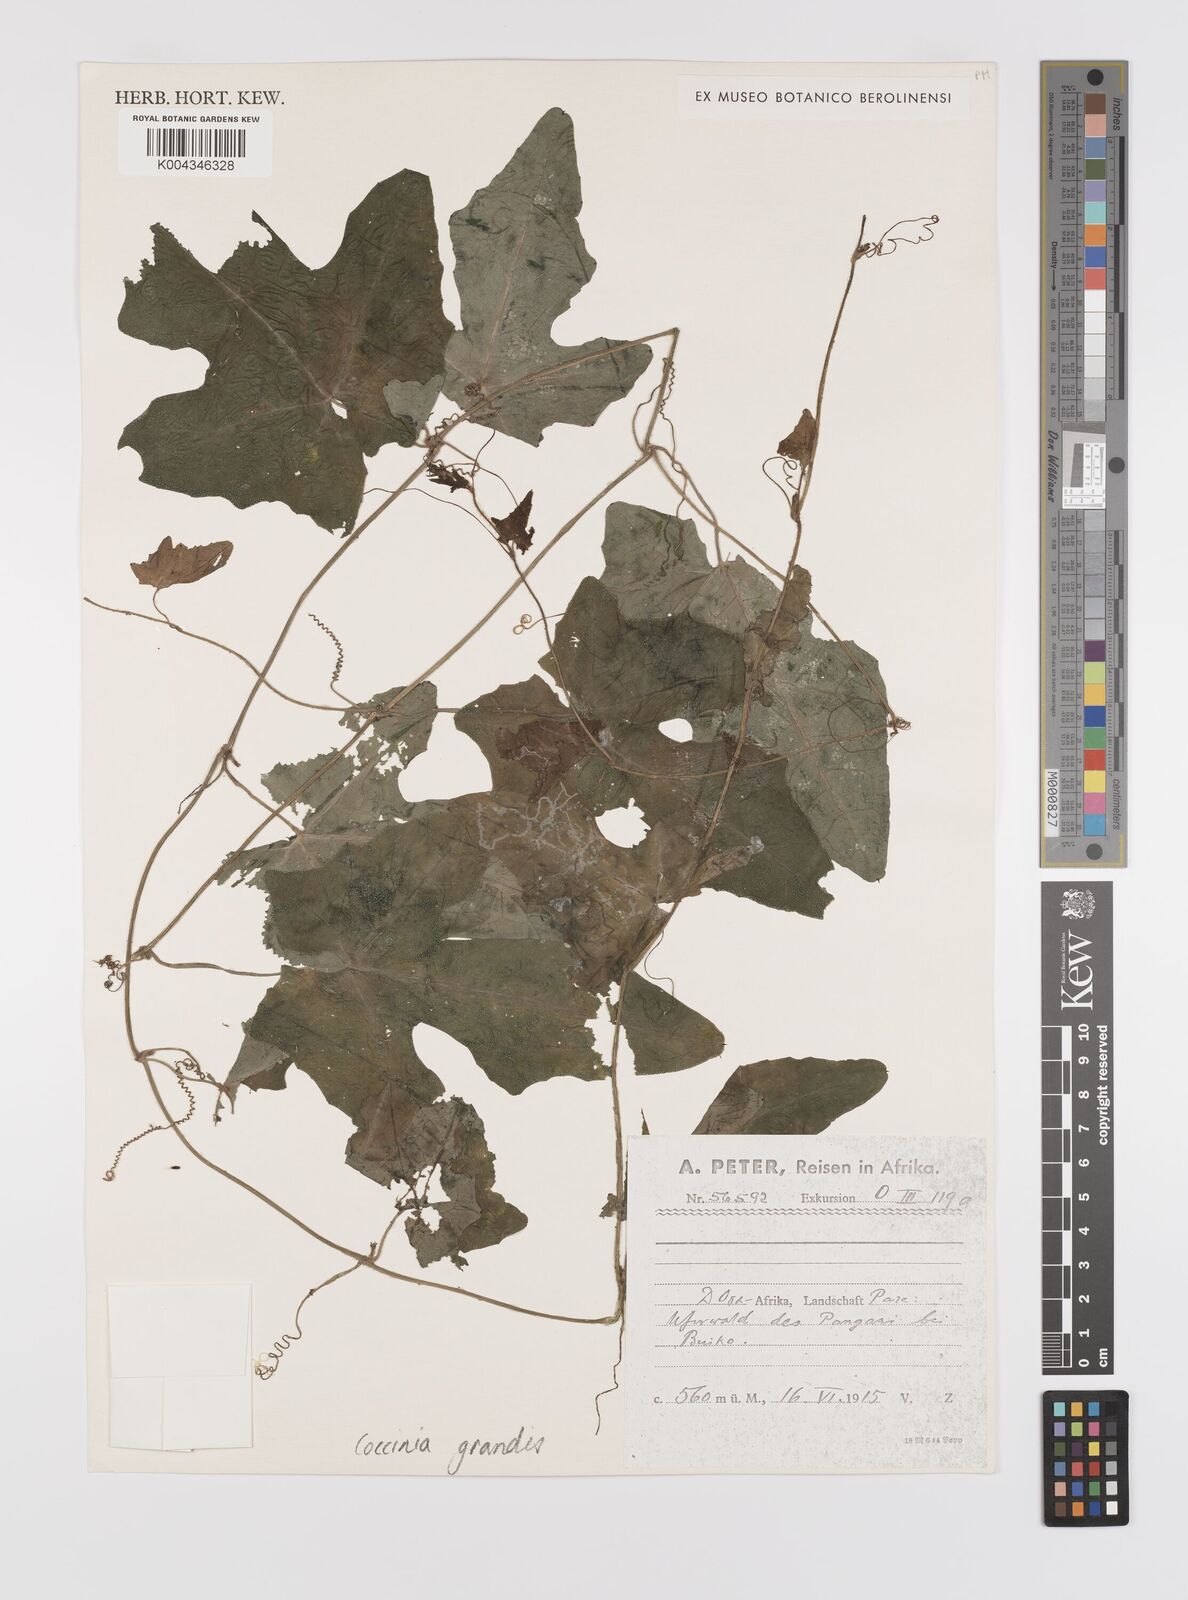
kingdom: Plantae
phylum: Tracheophyta
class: Magnoliopsida
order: Cucurbitales
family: Cucurbitaceae
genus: Coccinia
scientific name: Coccinia grandis
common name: Ivy gourd
